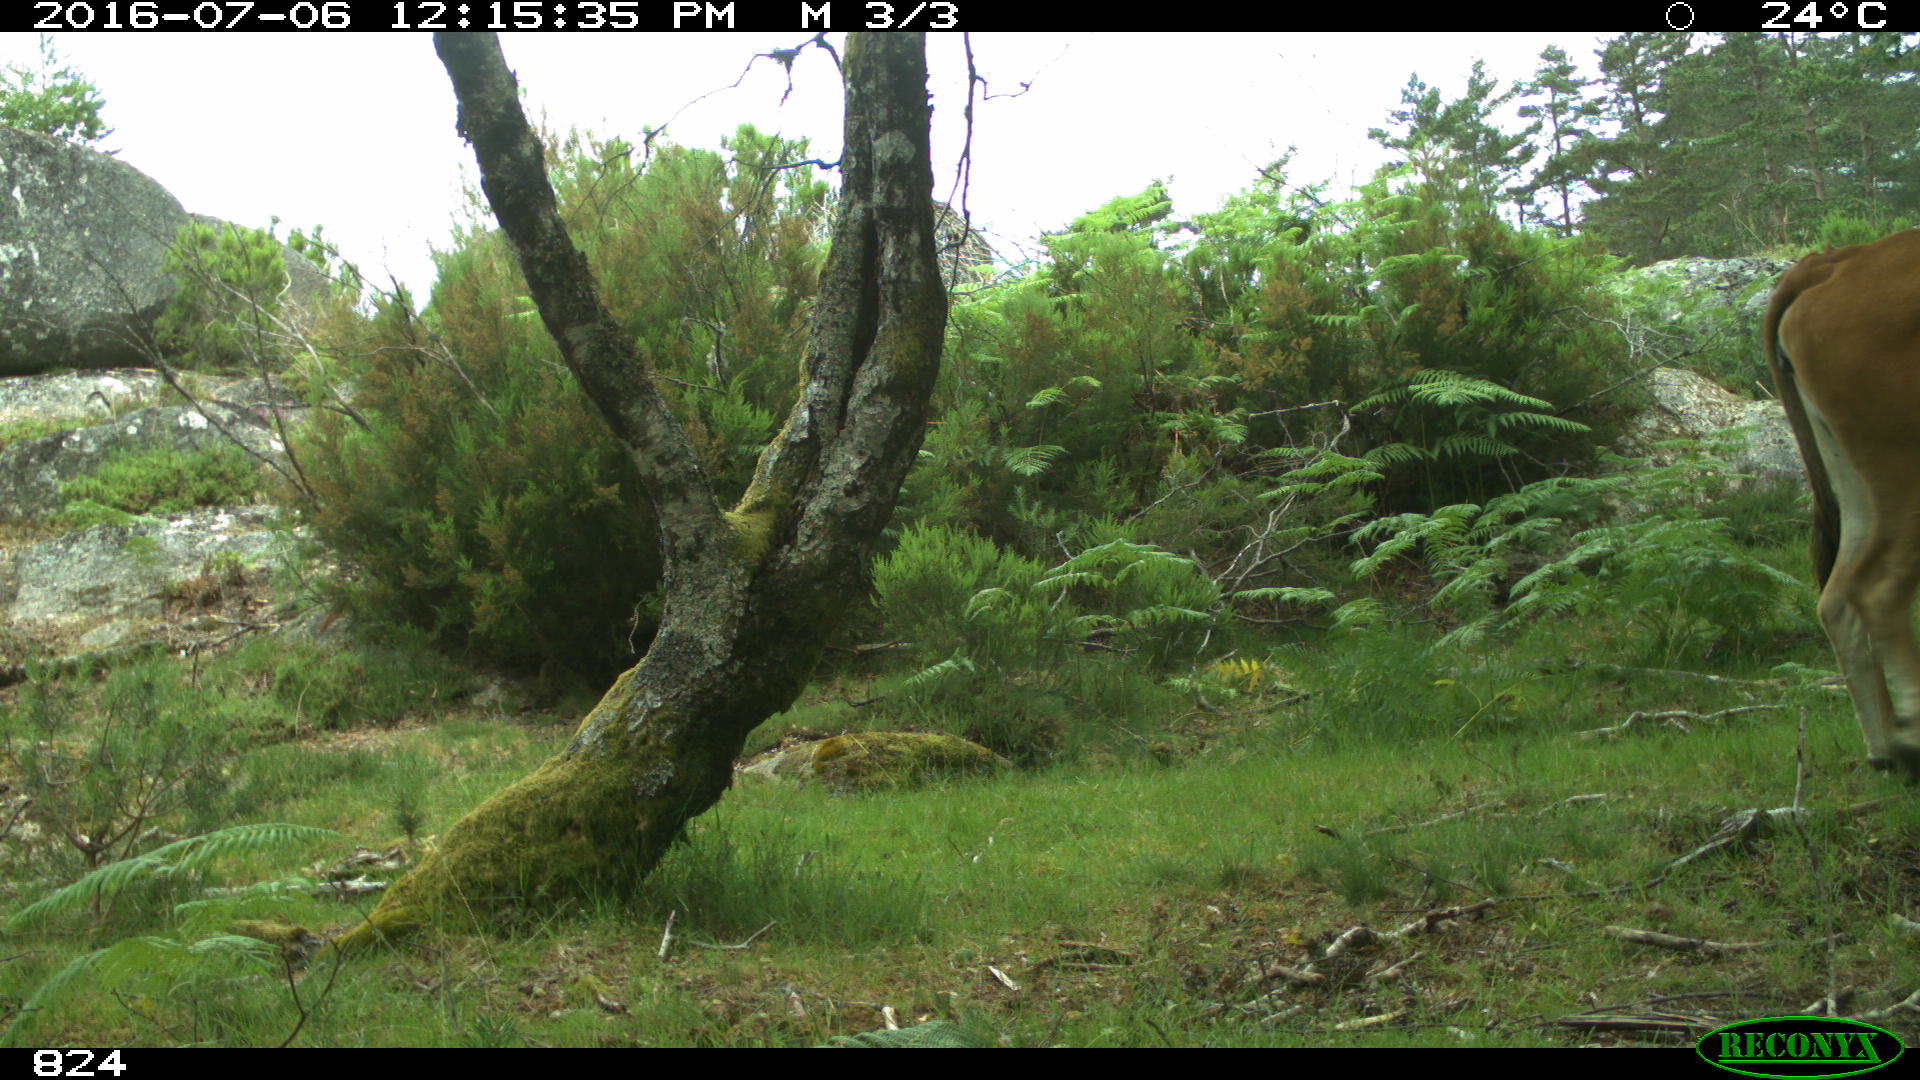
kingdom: Animalia
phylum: Chordata
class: Mammalia
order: Artiodactyla
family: Bovidae
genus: Bos
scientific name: Bos taurus
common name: Domesticated cattle
